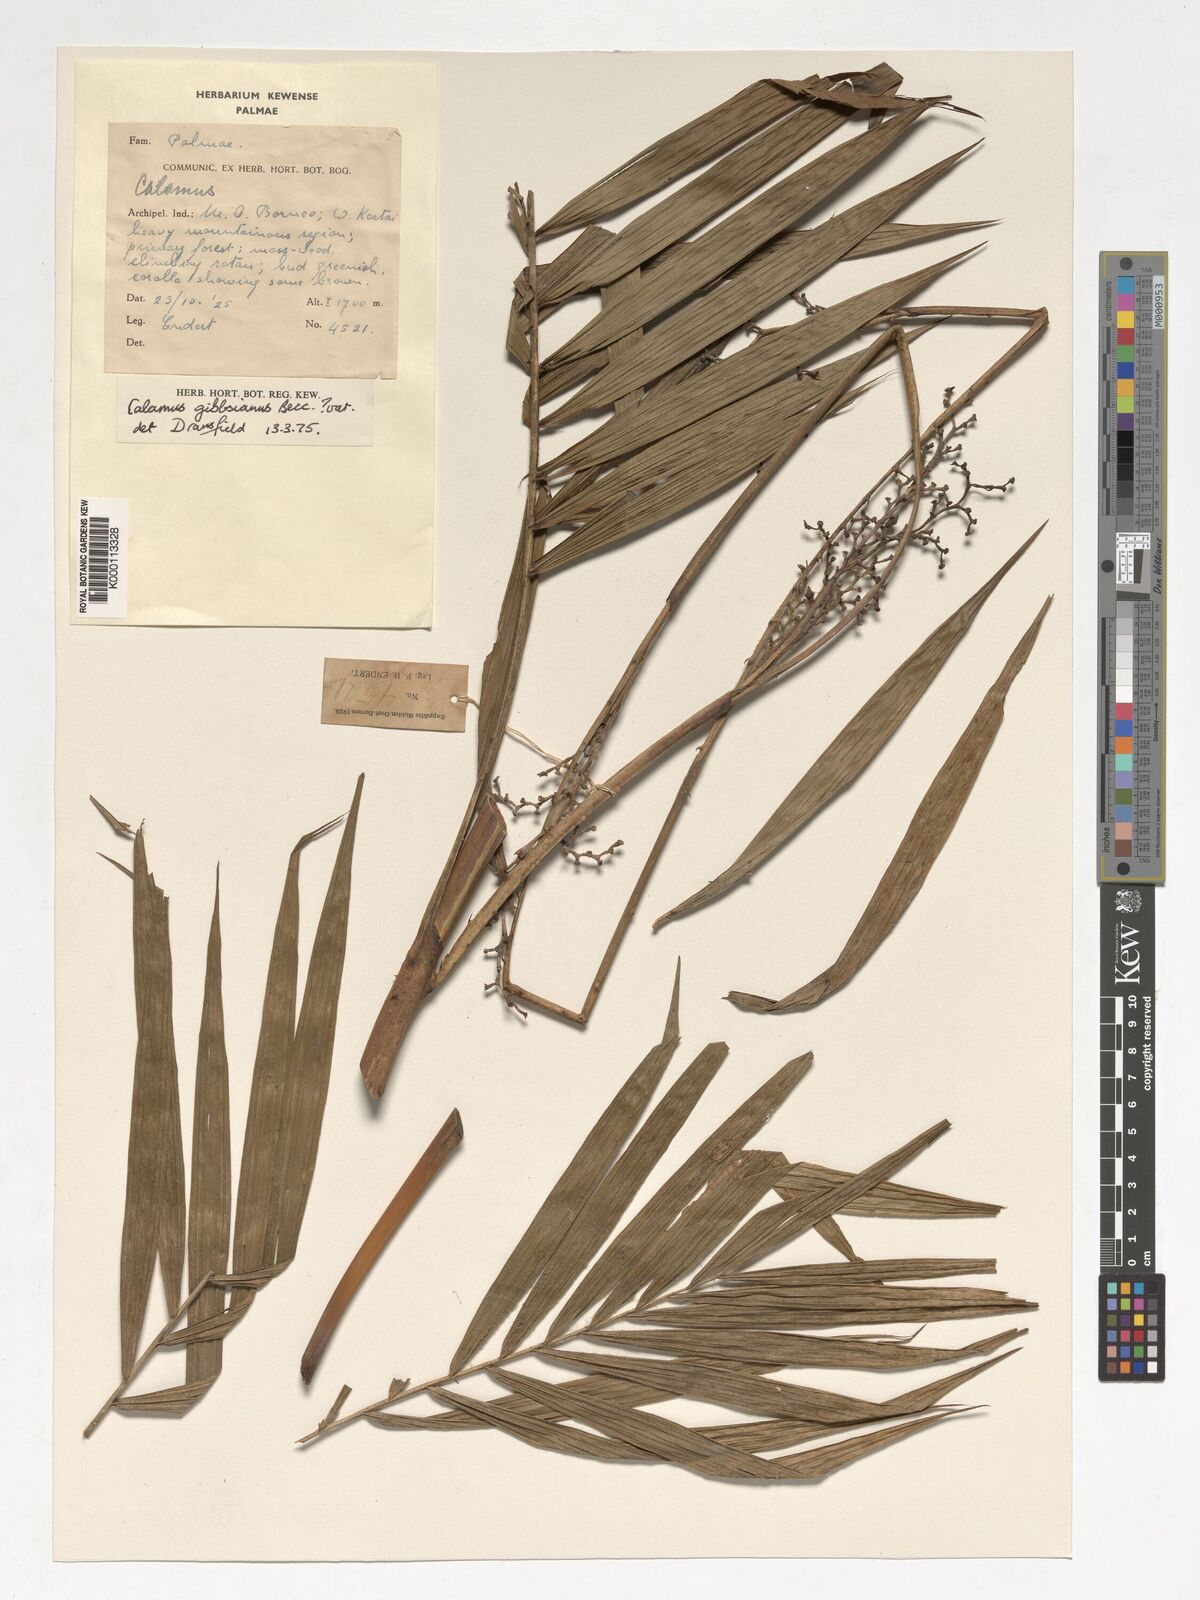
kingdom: Plantae
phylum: Tracheophyta
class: Liliopsida
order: Arecales
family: Arecaceae
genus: Calamus
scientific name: Calamus gibbsianus
